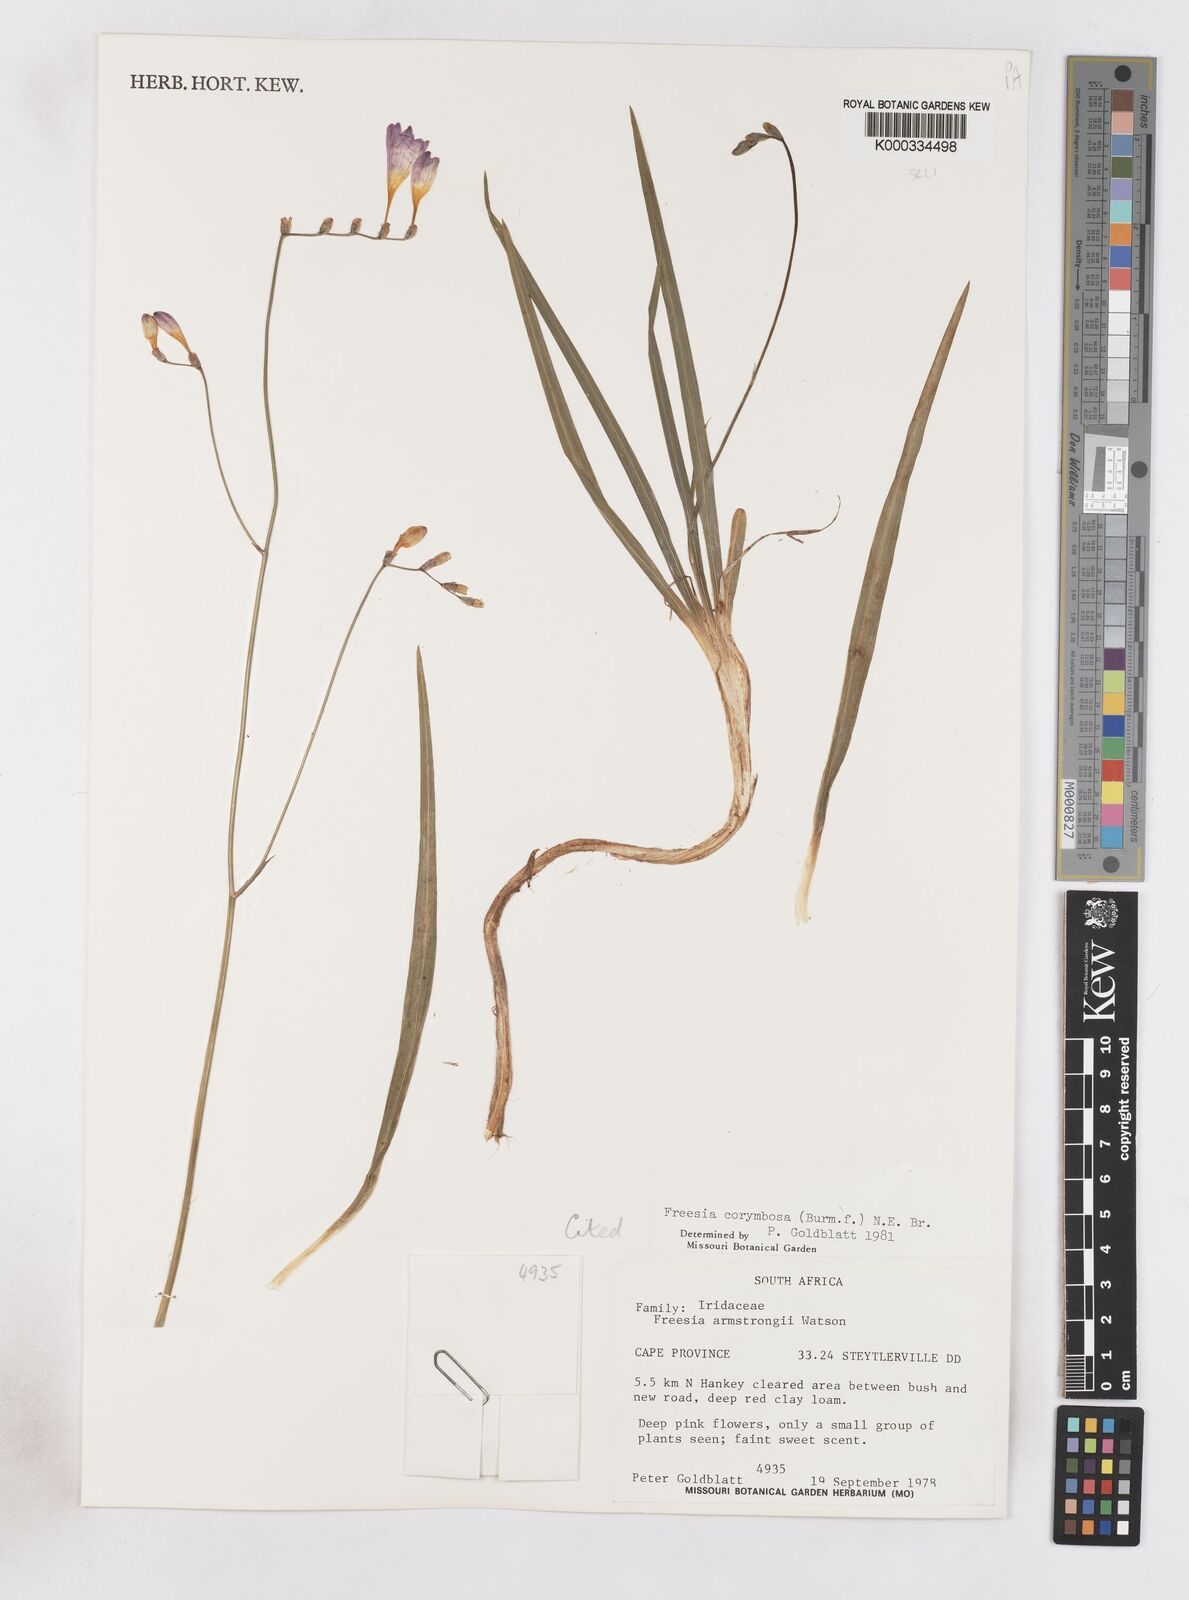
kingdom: Plantae
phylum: Tracheophyta
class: Liliopsida
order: Asparagales
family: Iridaceae
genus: Freesia
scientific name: Freesia corymbosa
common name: Common freesia
